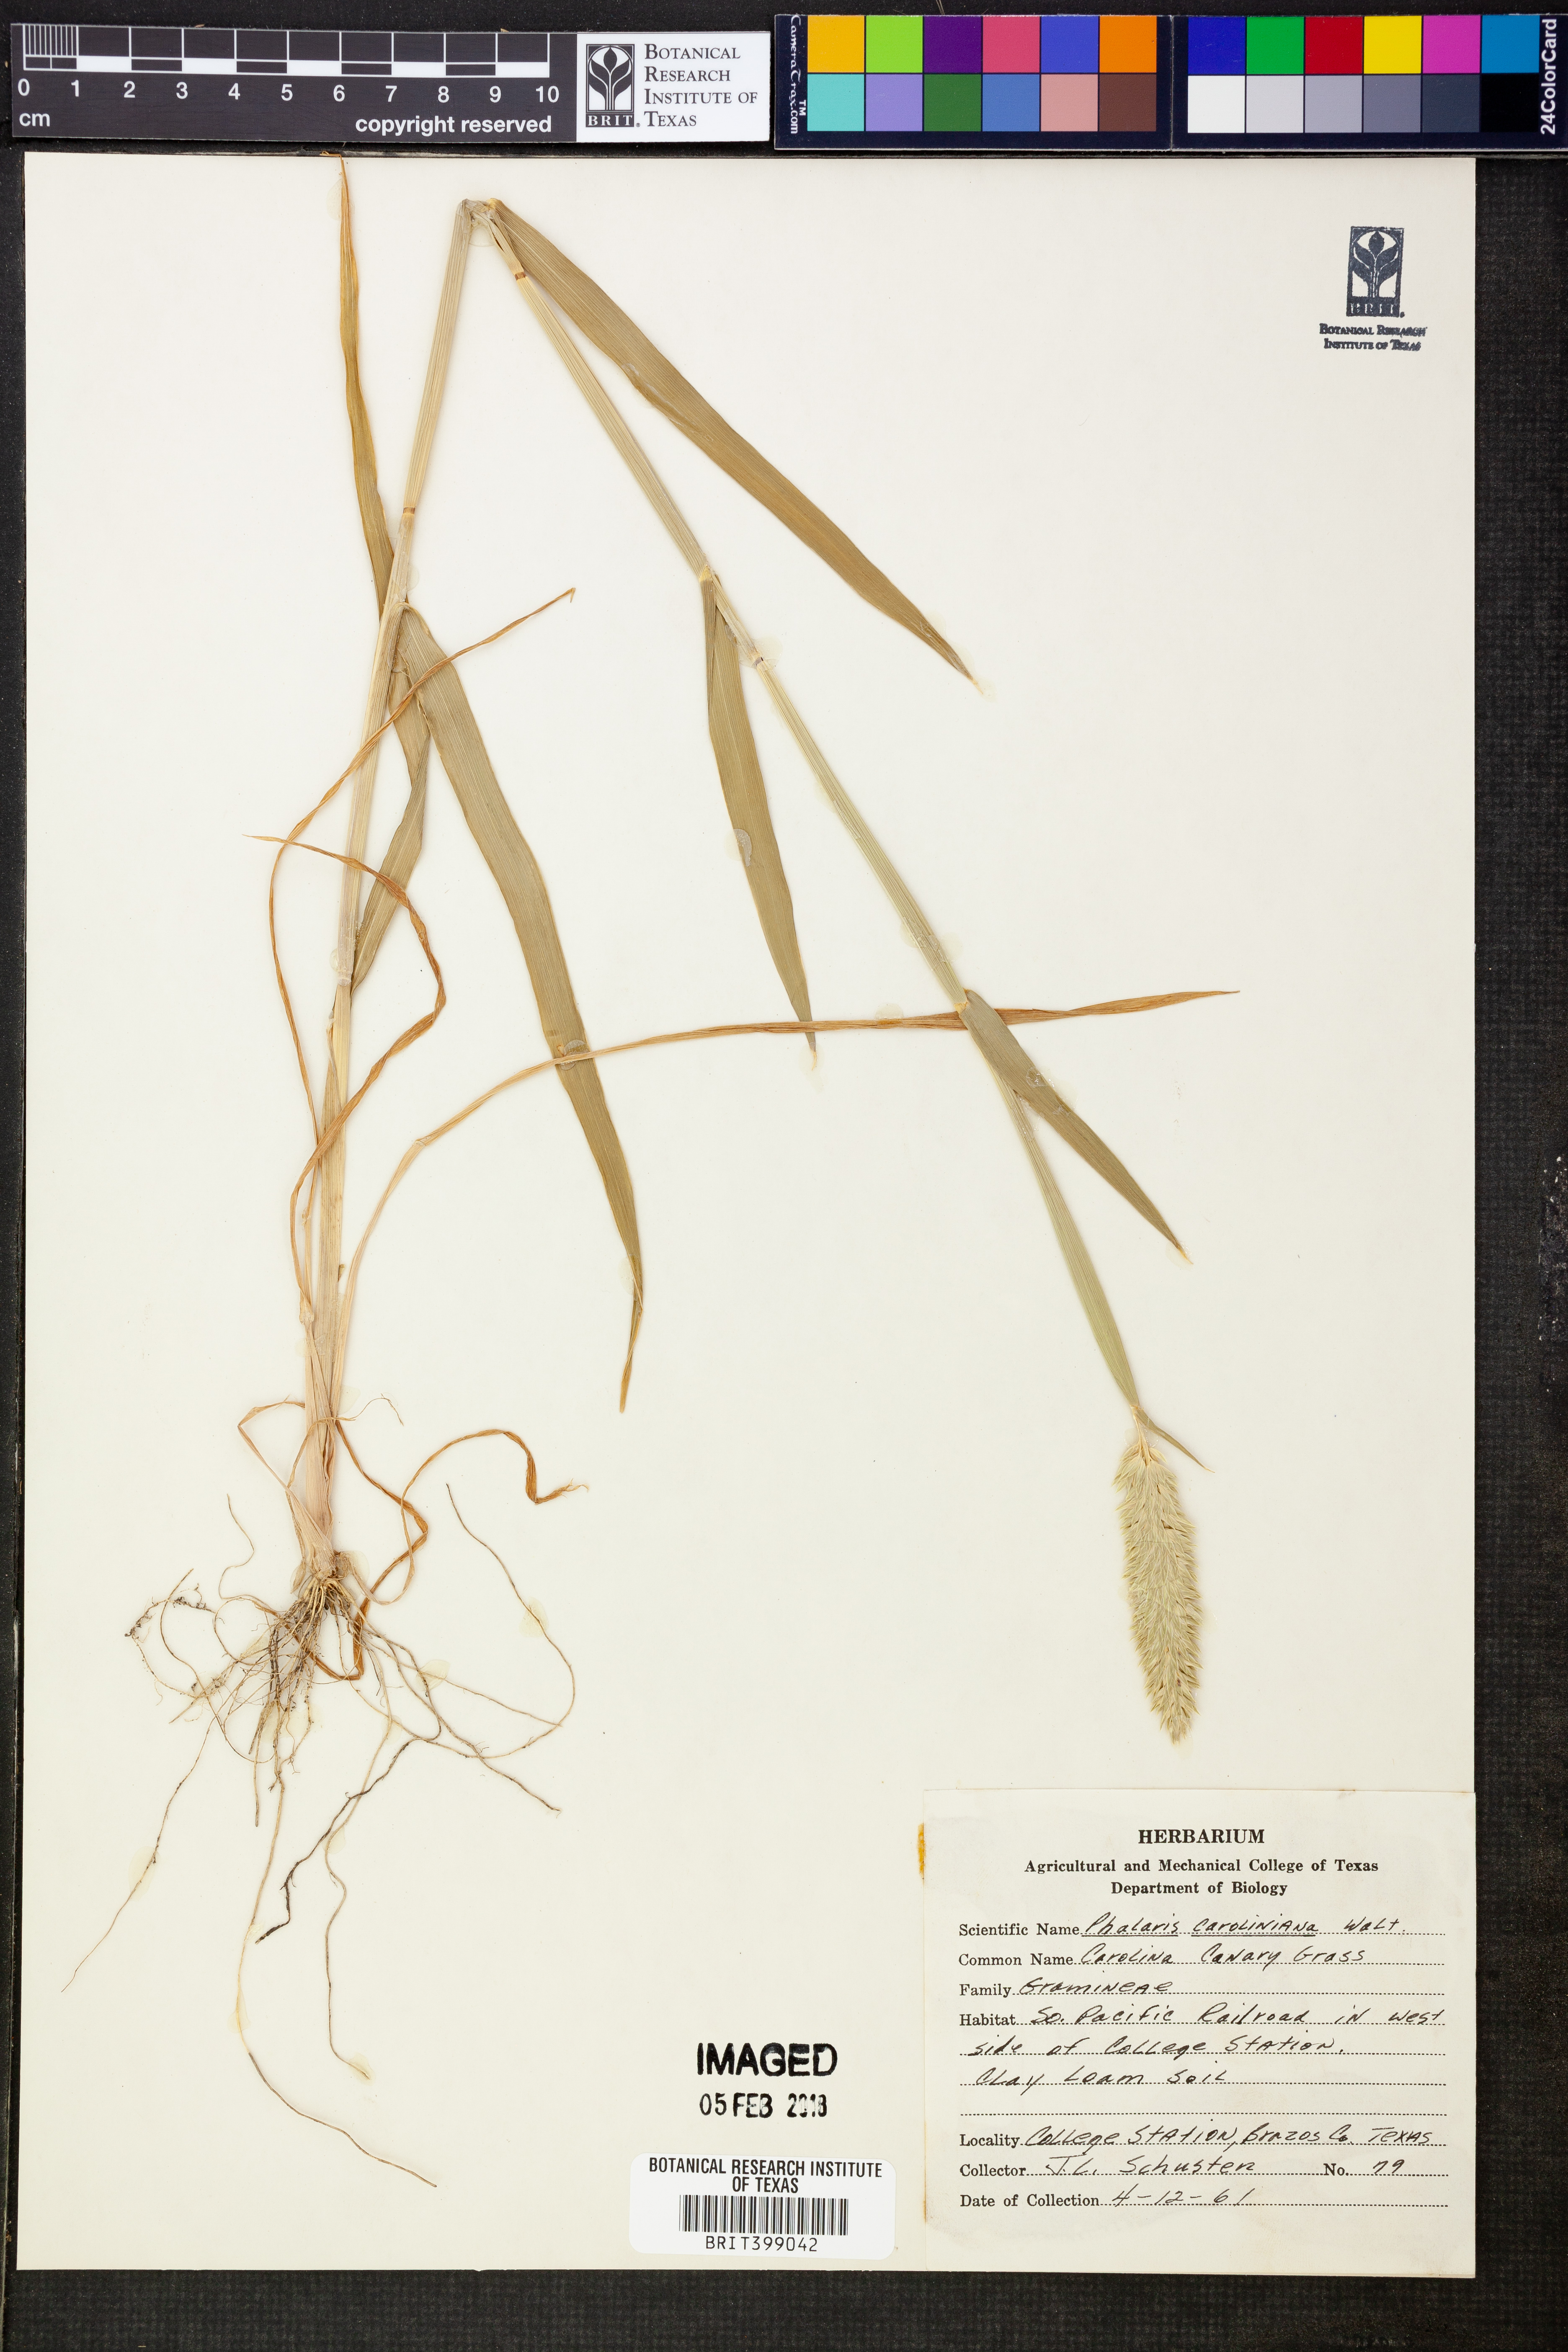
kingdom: Plantae
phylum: Tracheophyta
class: Liliopsida
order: Poales
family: Poaceae
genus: Phalaris
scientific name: Phalaris caroliniana
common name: May grass
